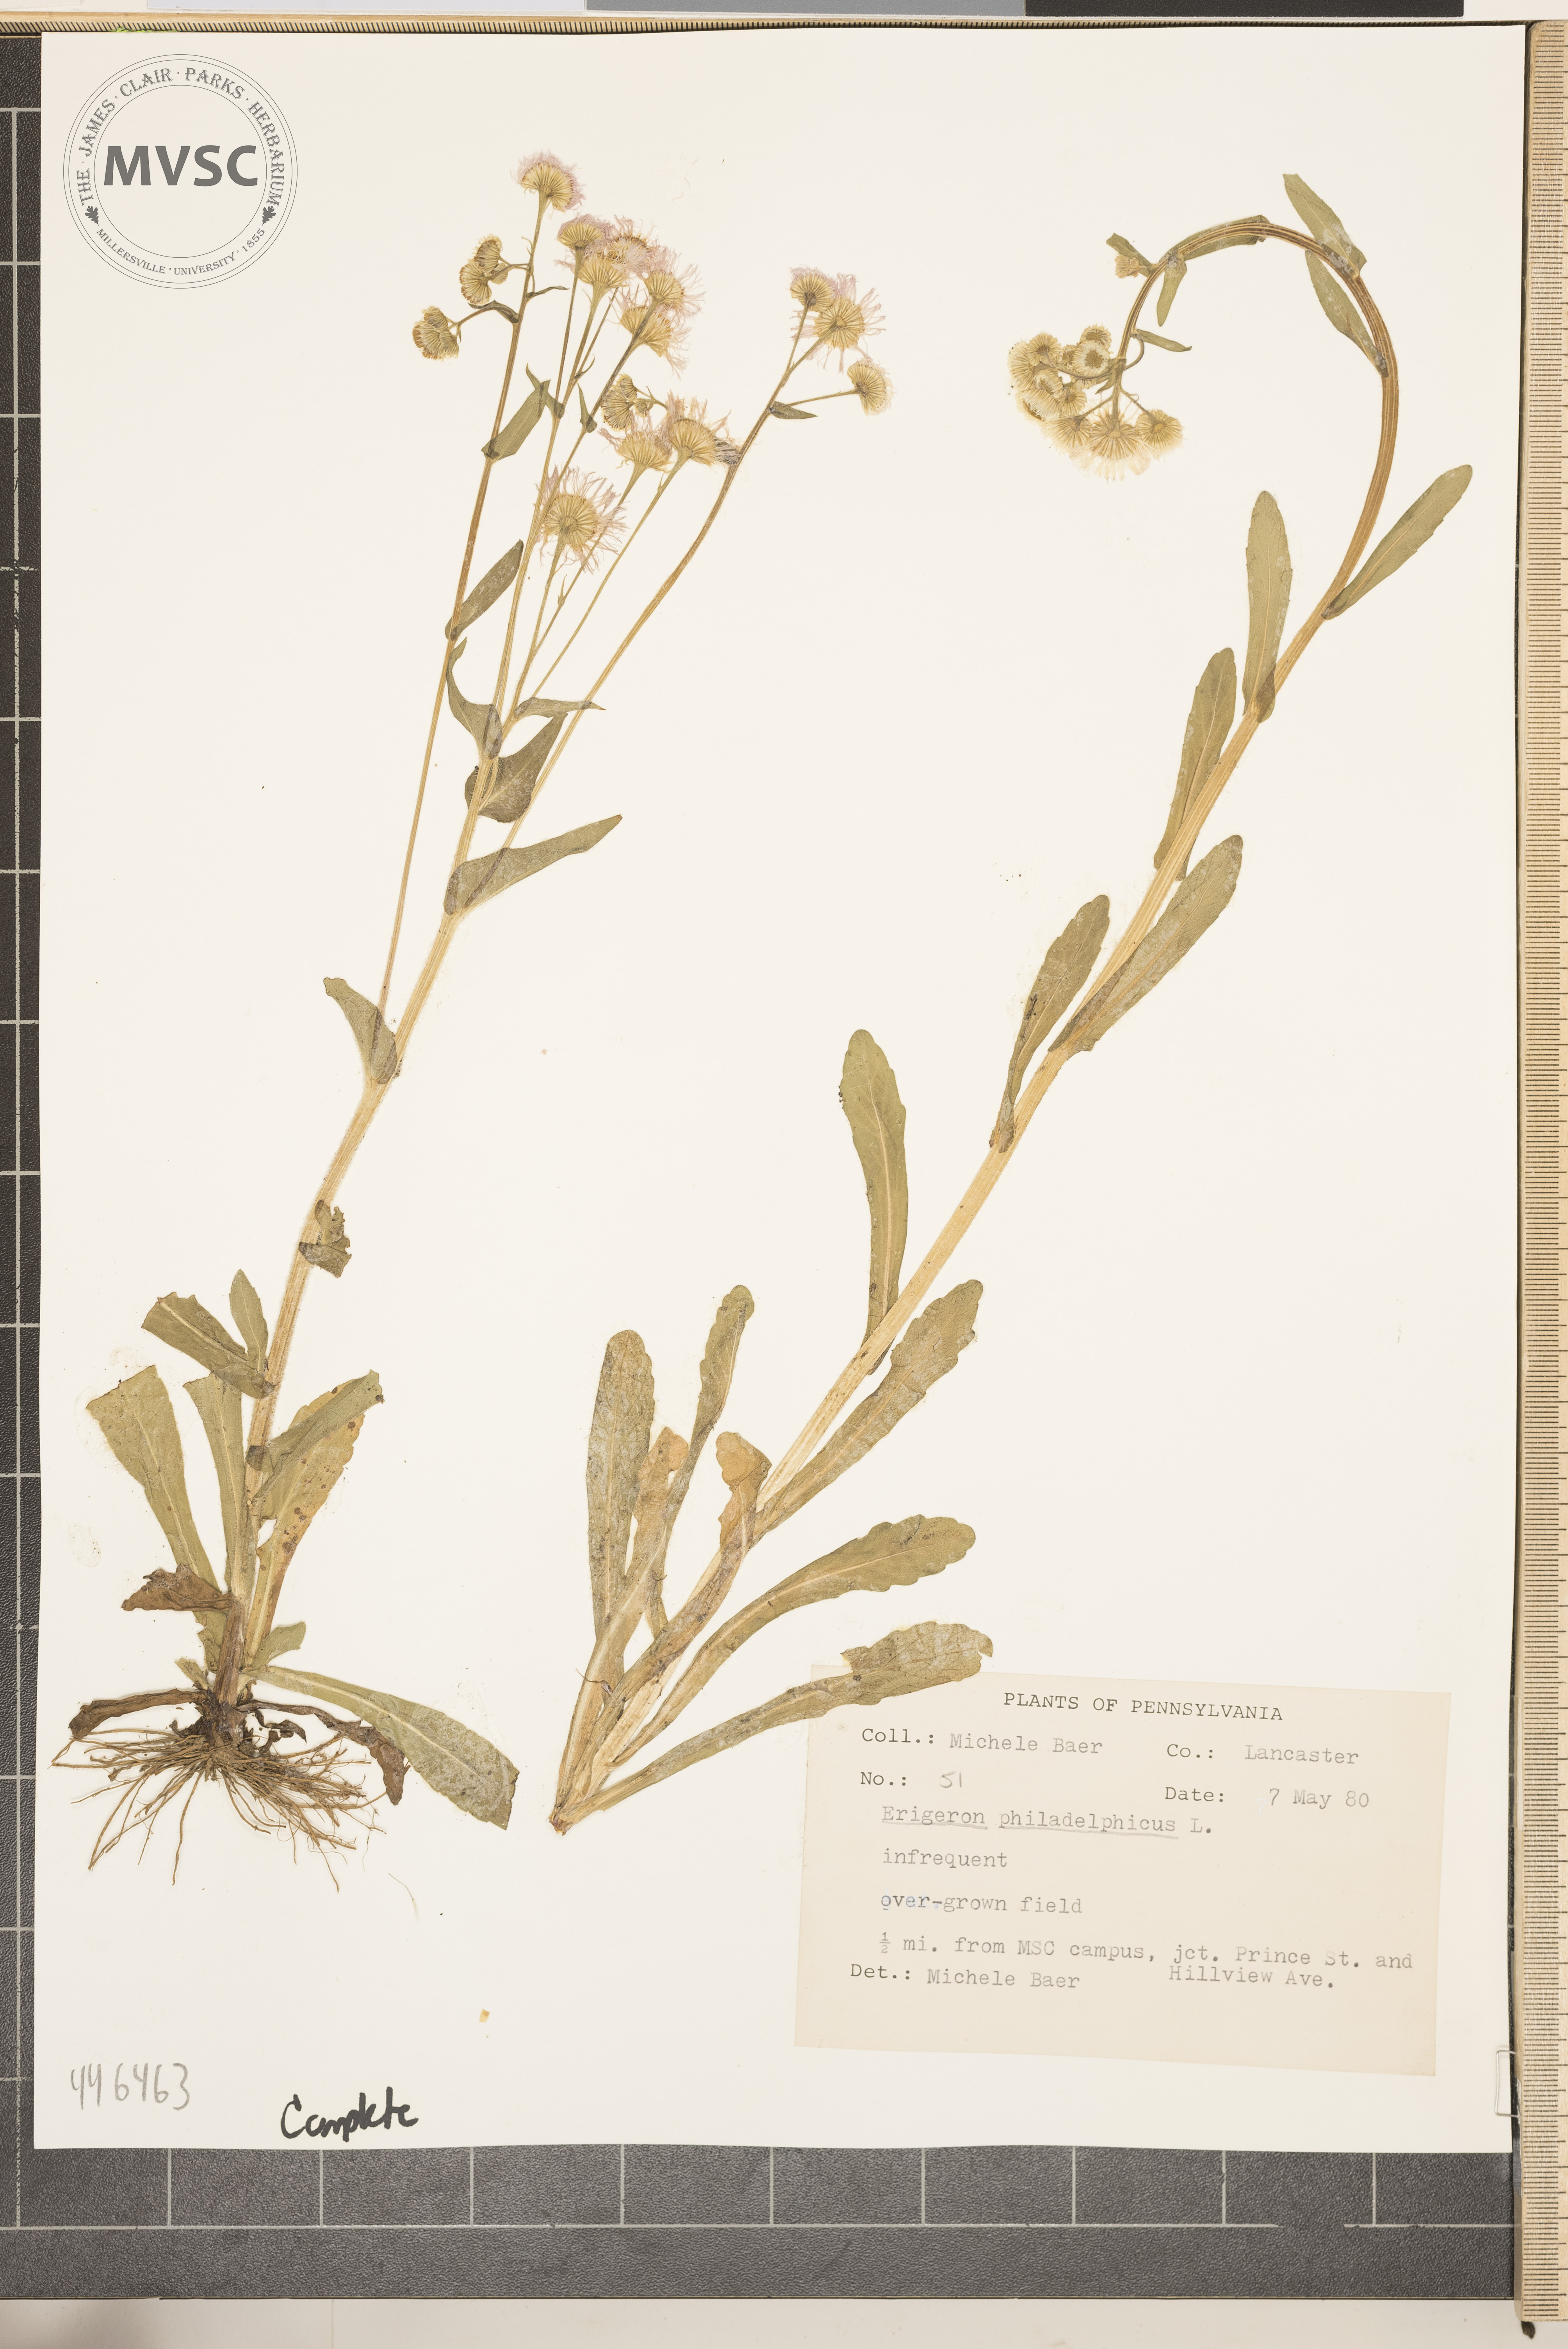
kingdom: Plantae
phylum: Tracheophyta
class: Magnoliopsida
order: Asterales
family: Asteraceae
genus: Erigeron
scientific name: Erigeron philadelphicus
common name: Robin's-plantain
